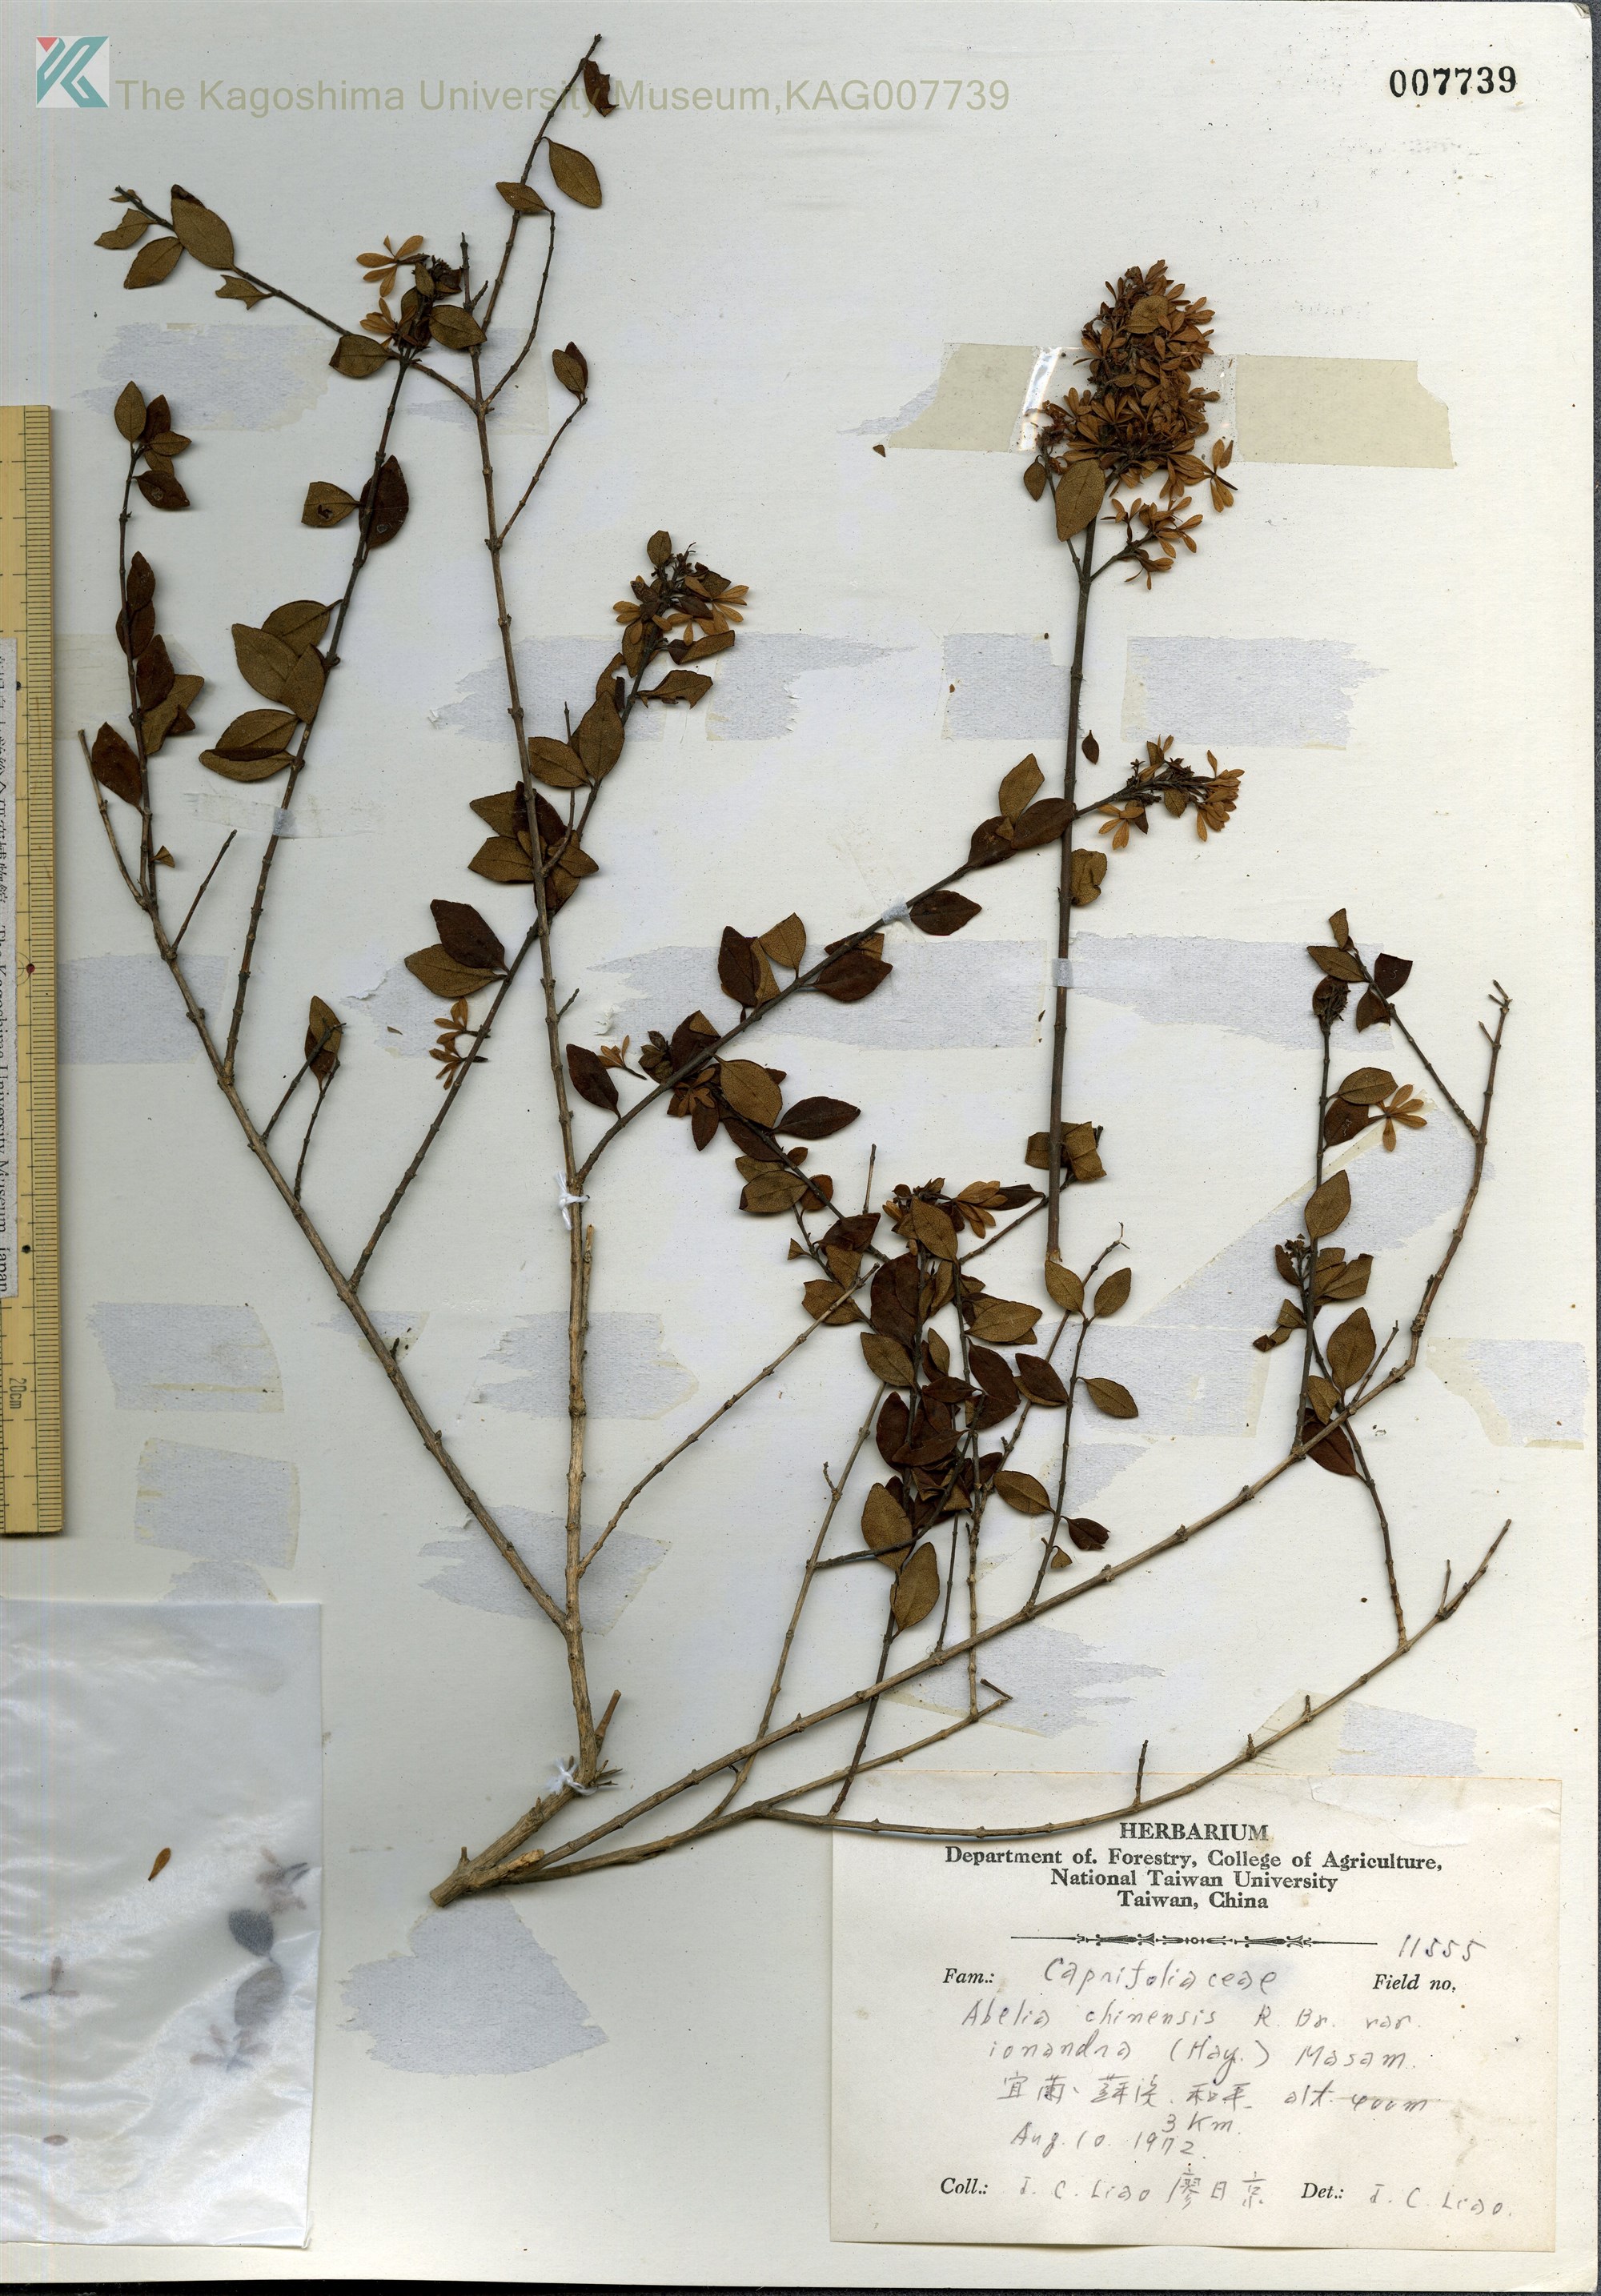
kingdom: Plantae
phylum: Tracheophyta
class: Magnoliopsida
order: Dipsacales
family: Caprifoliaceae
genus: Abelia
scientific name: Abelia chinensis
